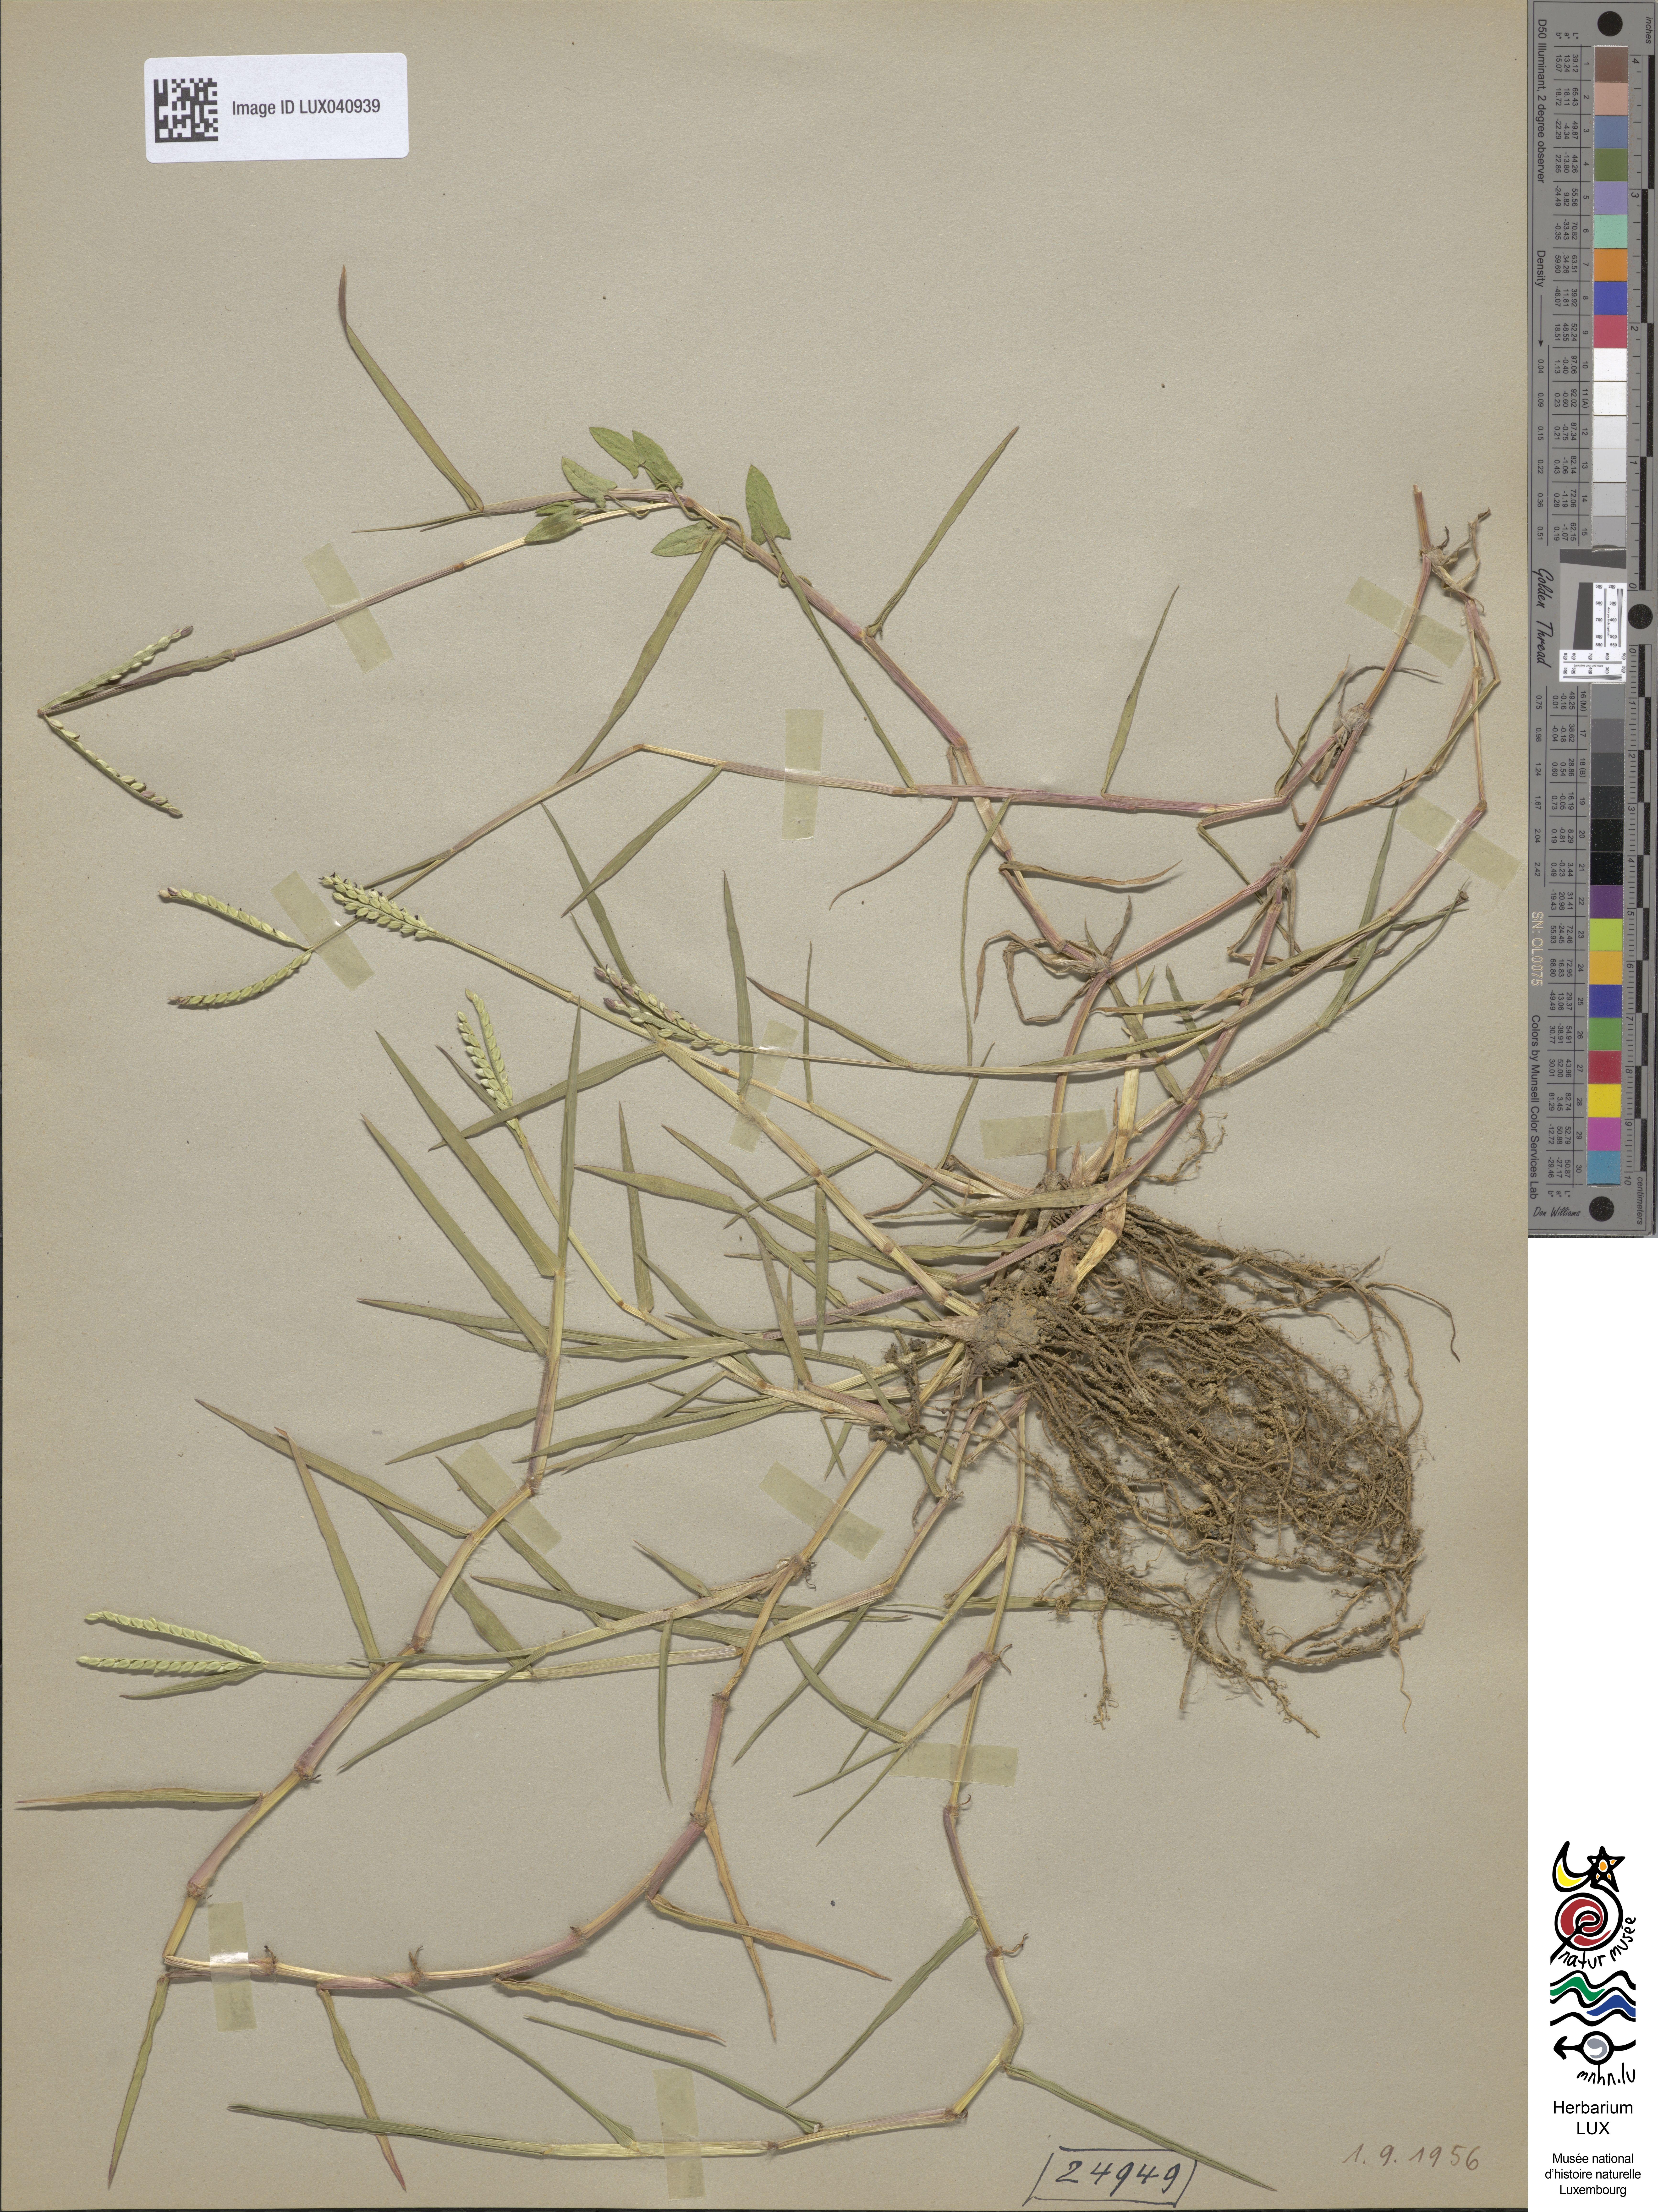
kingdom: Plantae
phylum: Tracheophyta
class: Liliopsida
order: Poales
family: Poaceae
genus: Paspalum
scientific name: Paspalum distichum
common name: Knotgrass
